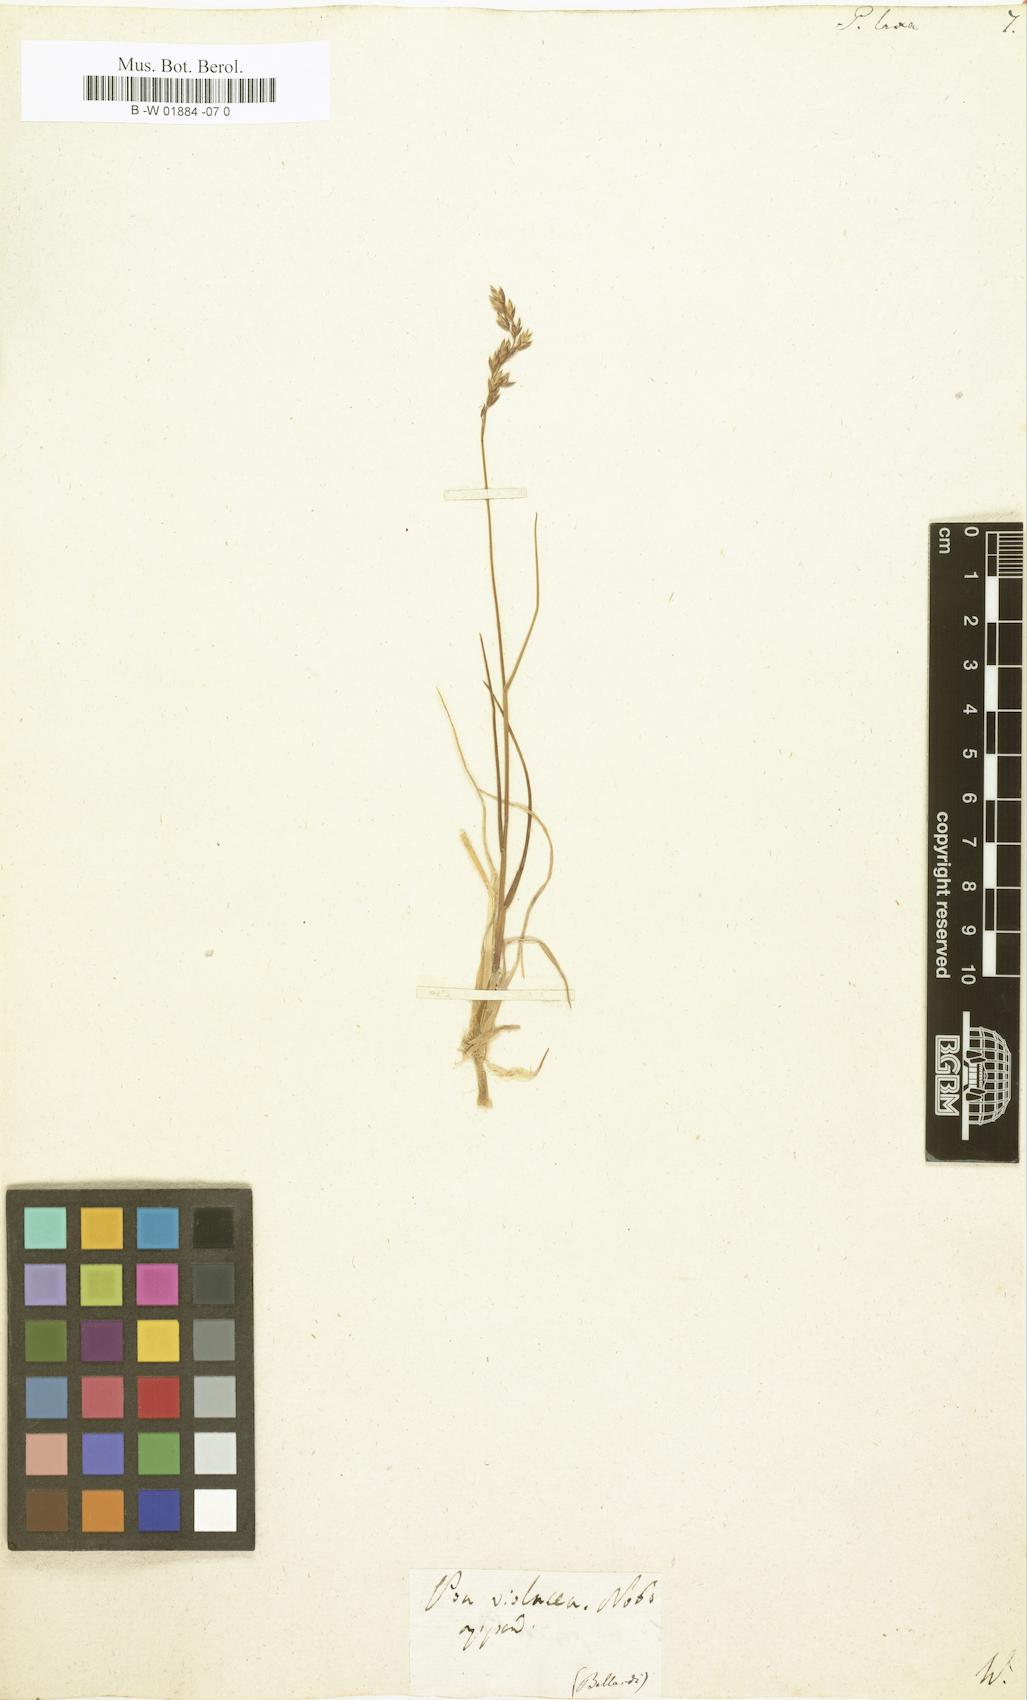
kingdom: Plantae
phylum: Tracheophyta
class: Liliopsida
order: Poales
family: Poaceae
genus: Poa
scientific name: Poa laxa
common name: Lax bluegrass
